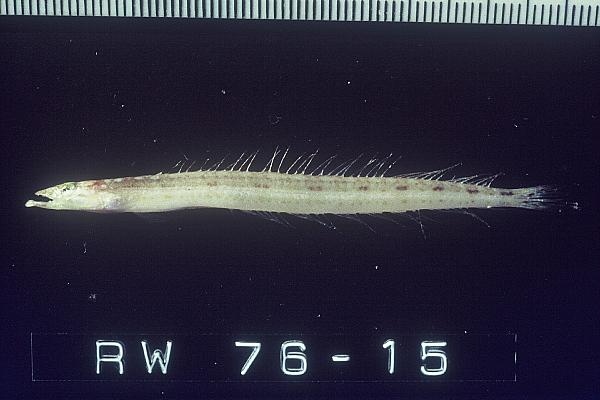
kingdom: Animalia
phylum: Chordata
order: Perciformes
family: Trichonotidae
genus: Trichonotus
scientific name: Trichonotus marleyi
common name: Sand diver
